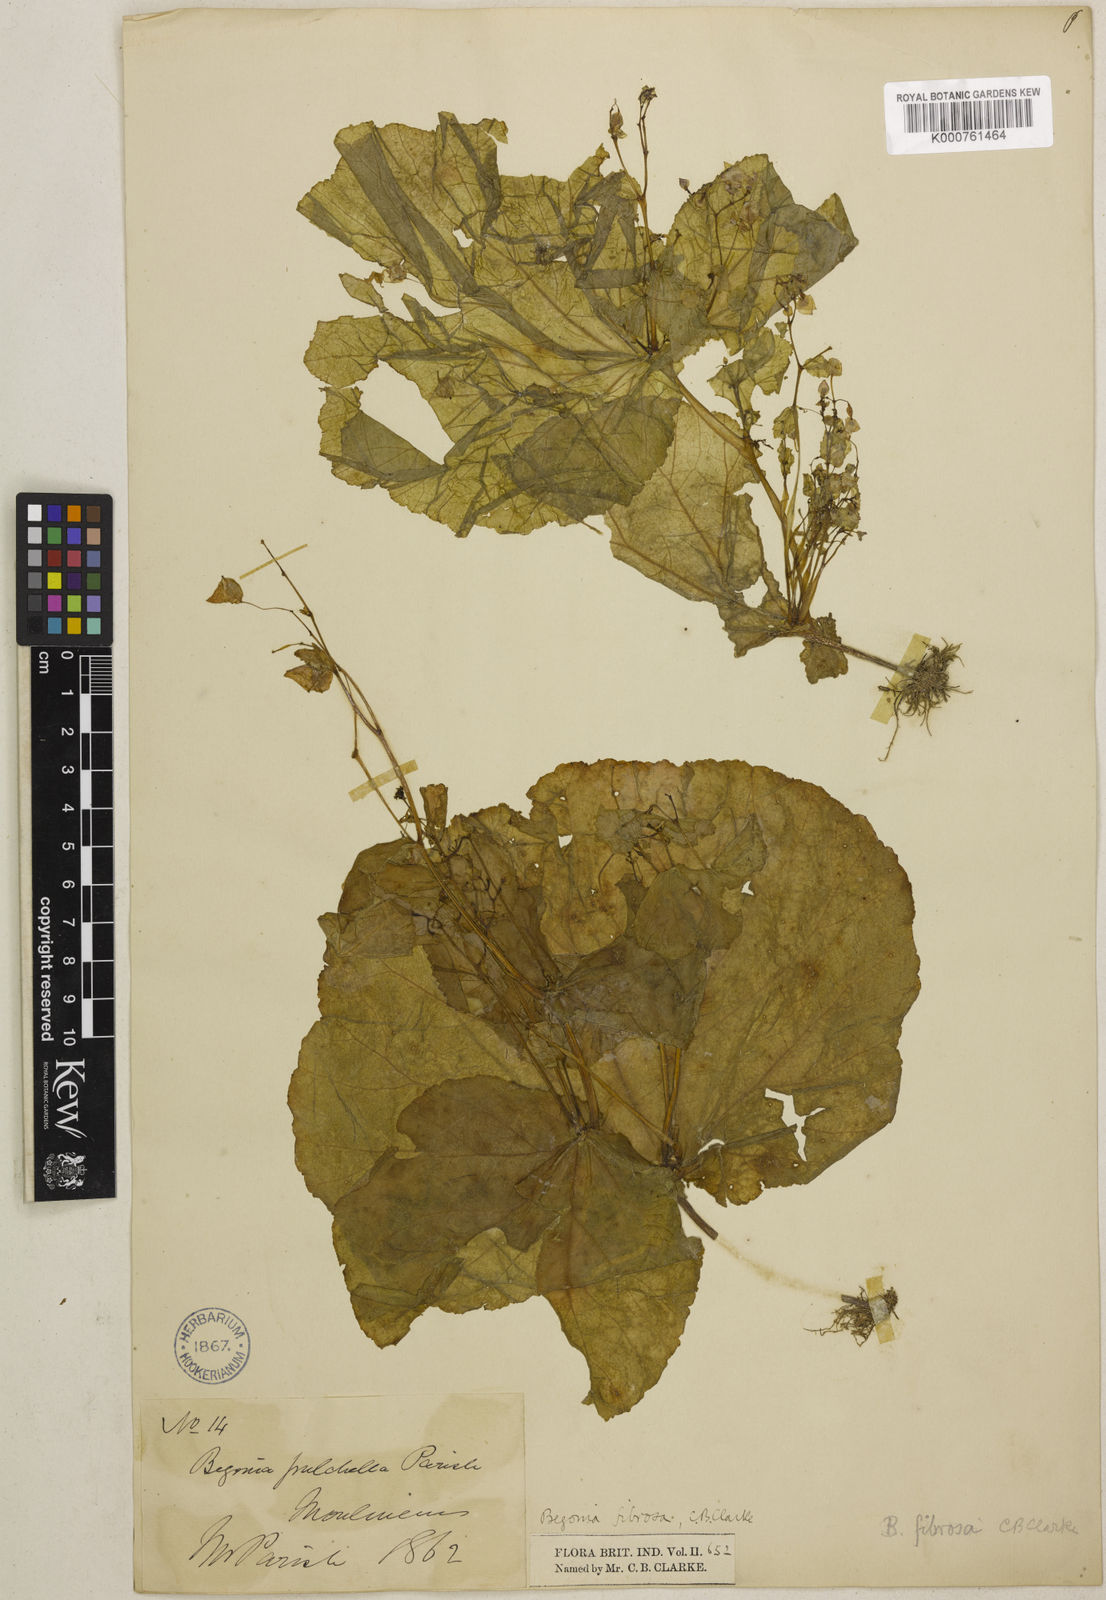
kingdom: Plantae
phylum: Tracheophyta
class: Magnoliopsida
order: Cucurbitales
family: Begoniaceae
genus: Begonia
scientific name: Begonia fibrosa
